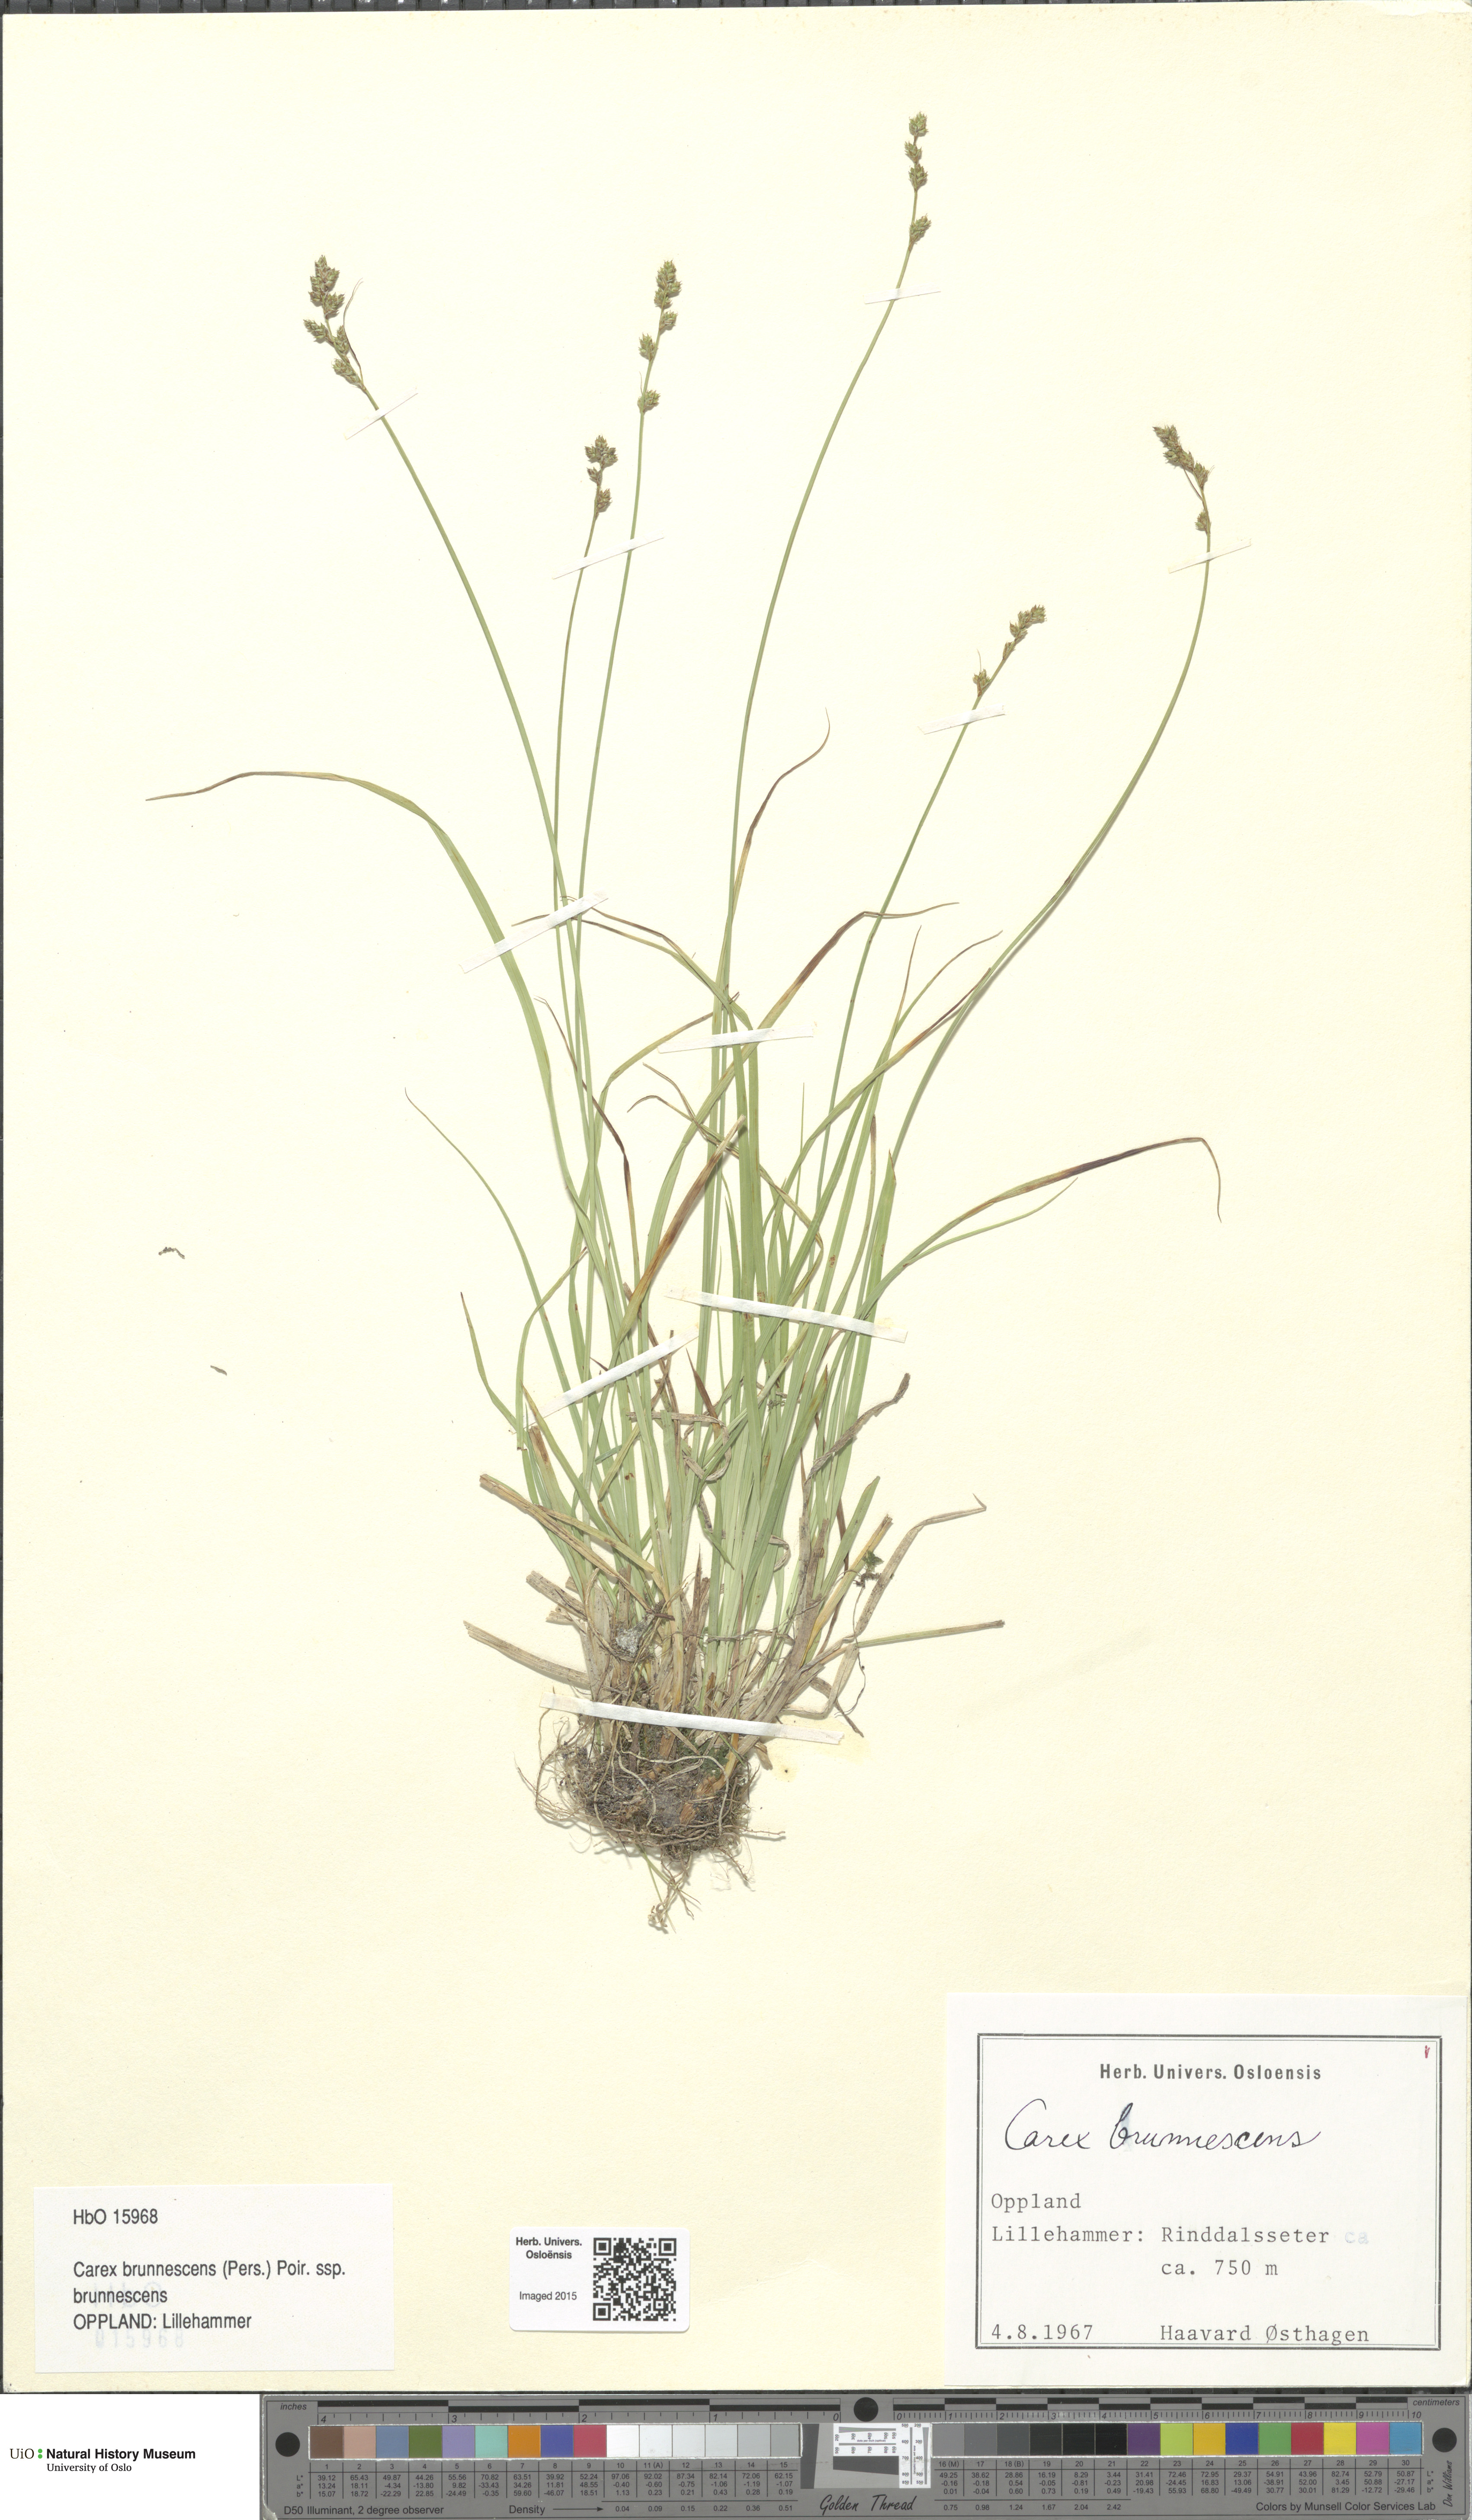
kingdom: Plantae
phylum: Tracheophyta
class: Liliopsida
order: Poales
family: Cyperaceae
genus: Carex
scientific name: Carex brunnescens
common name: Brown sedge
